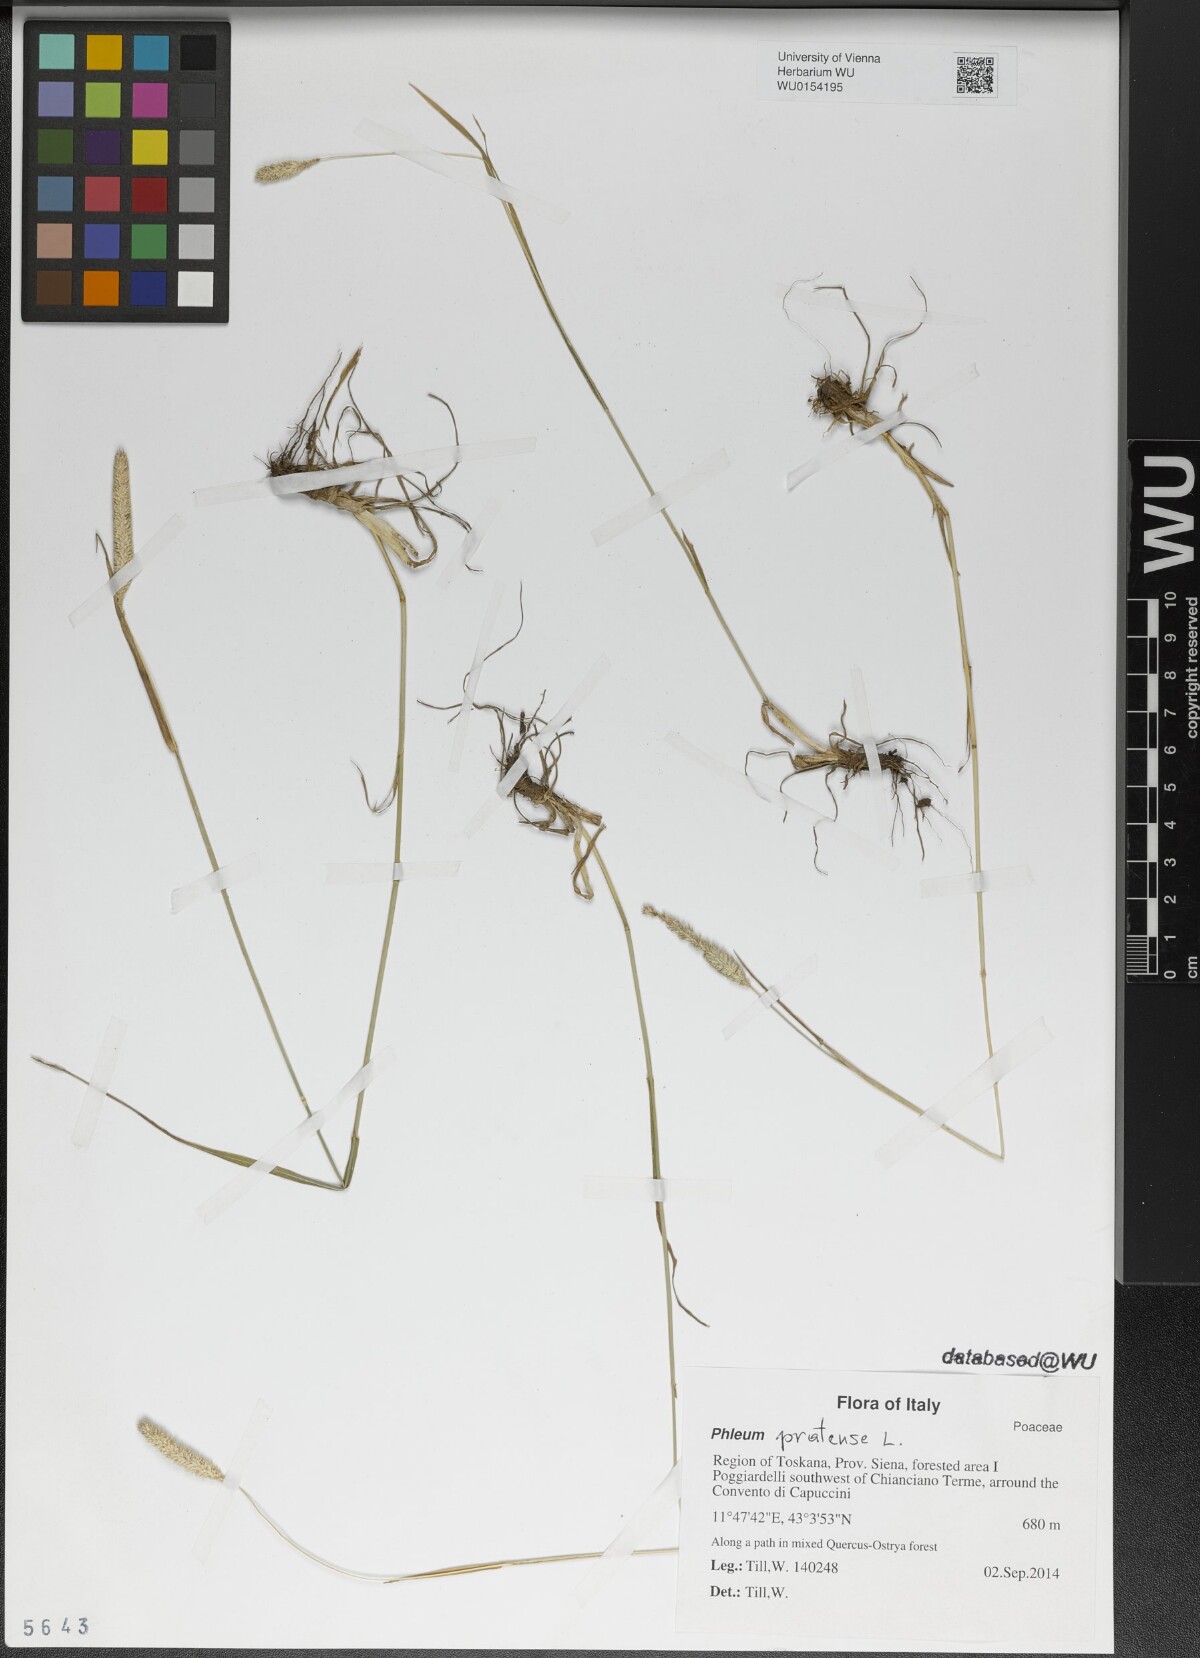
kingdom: Plantae
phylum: Tracheophyta
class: Liliopsida
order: Poales
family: Poaceae
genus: Phleum
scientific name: Phleum pratense
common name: Timothy grass
